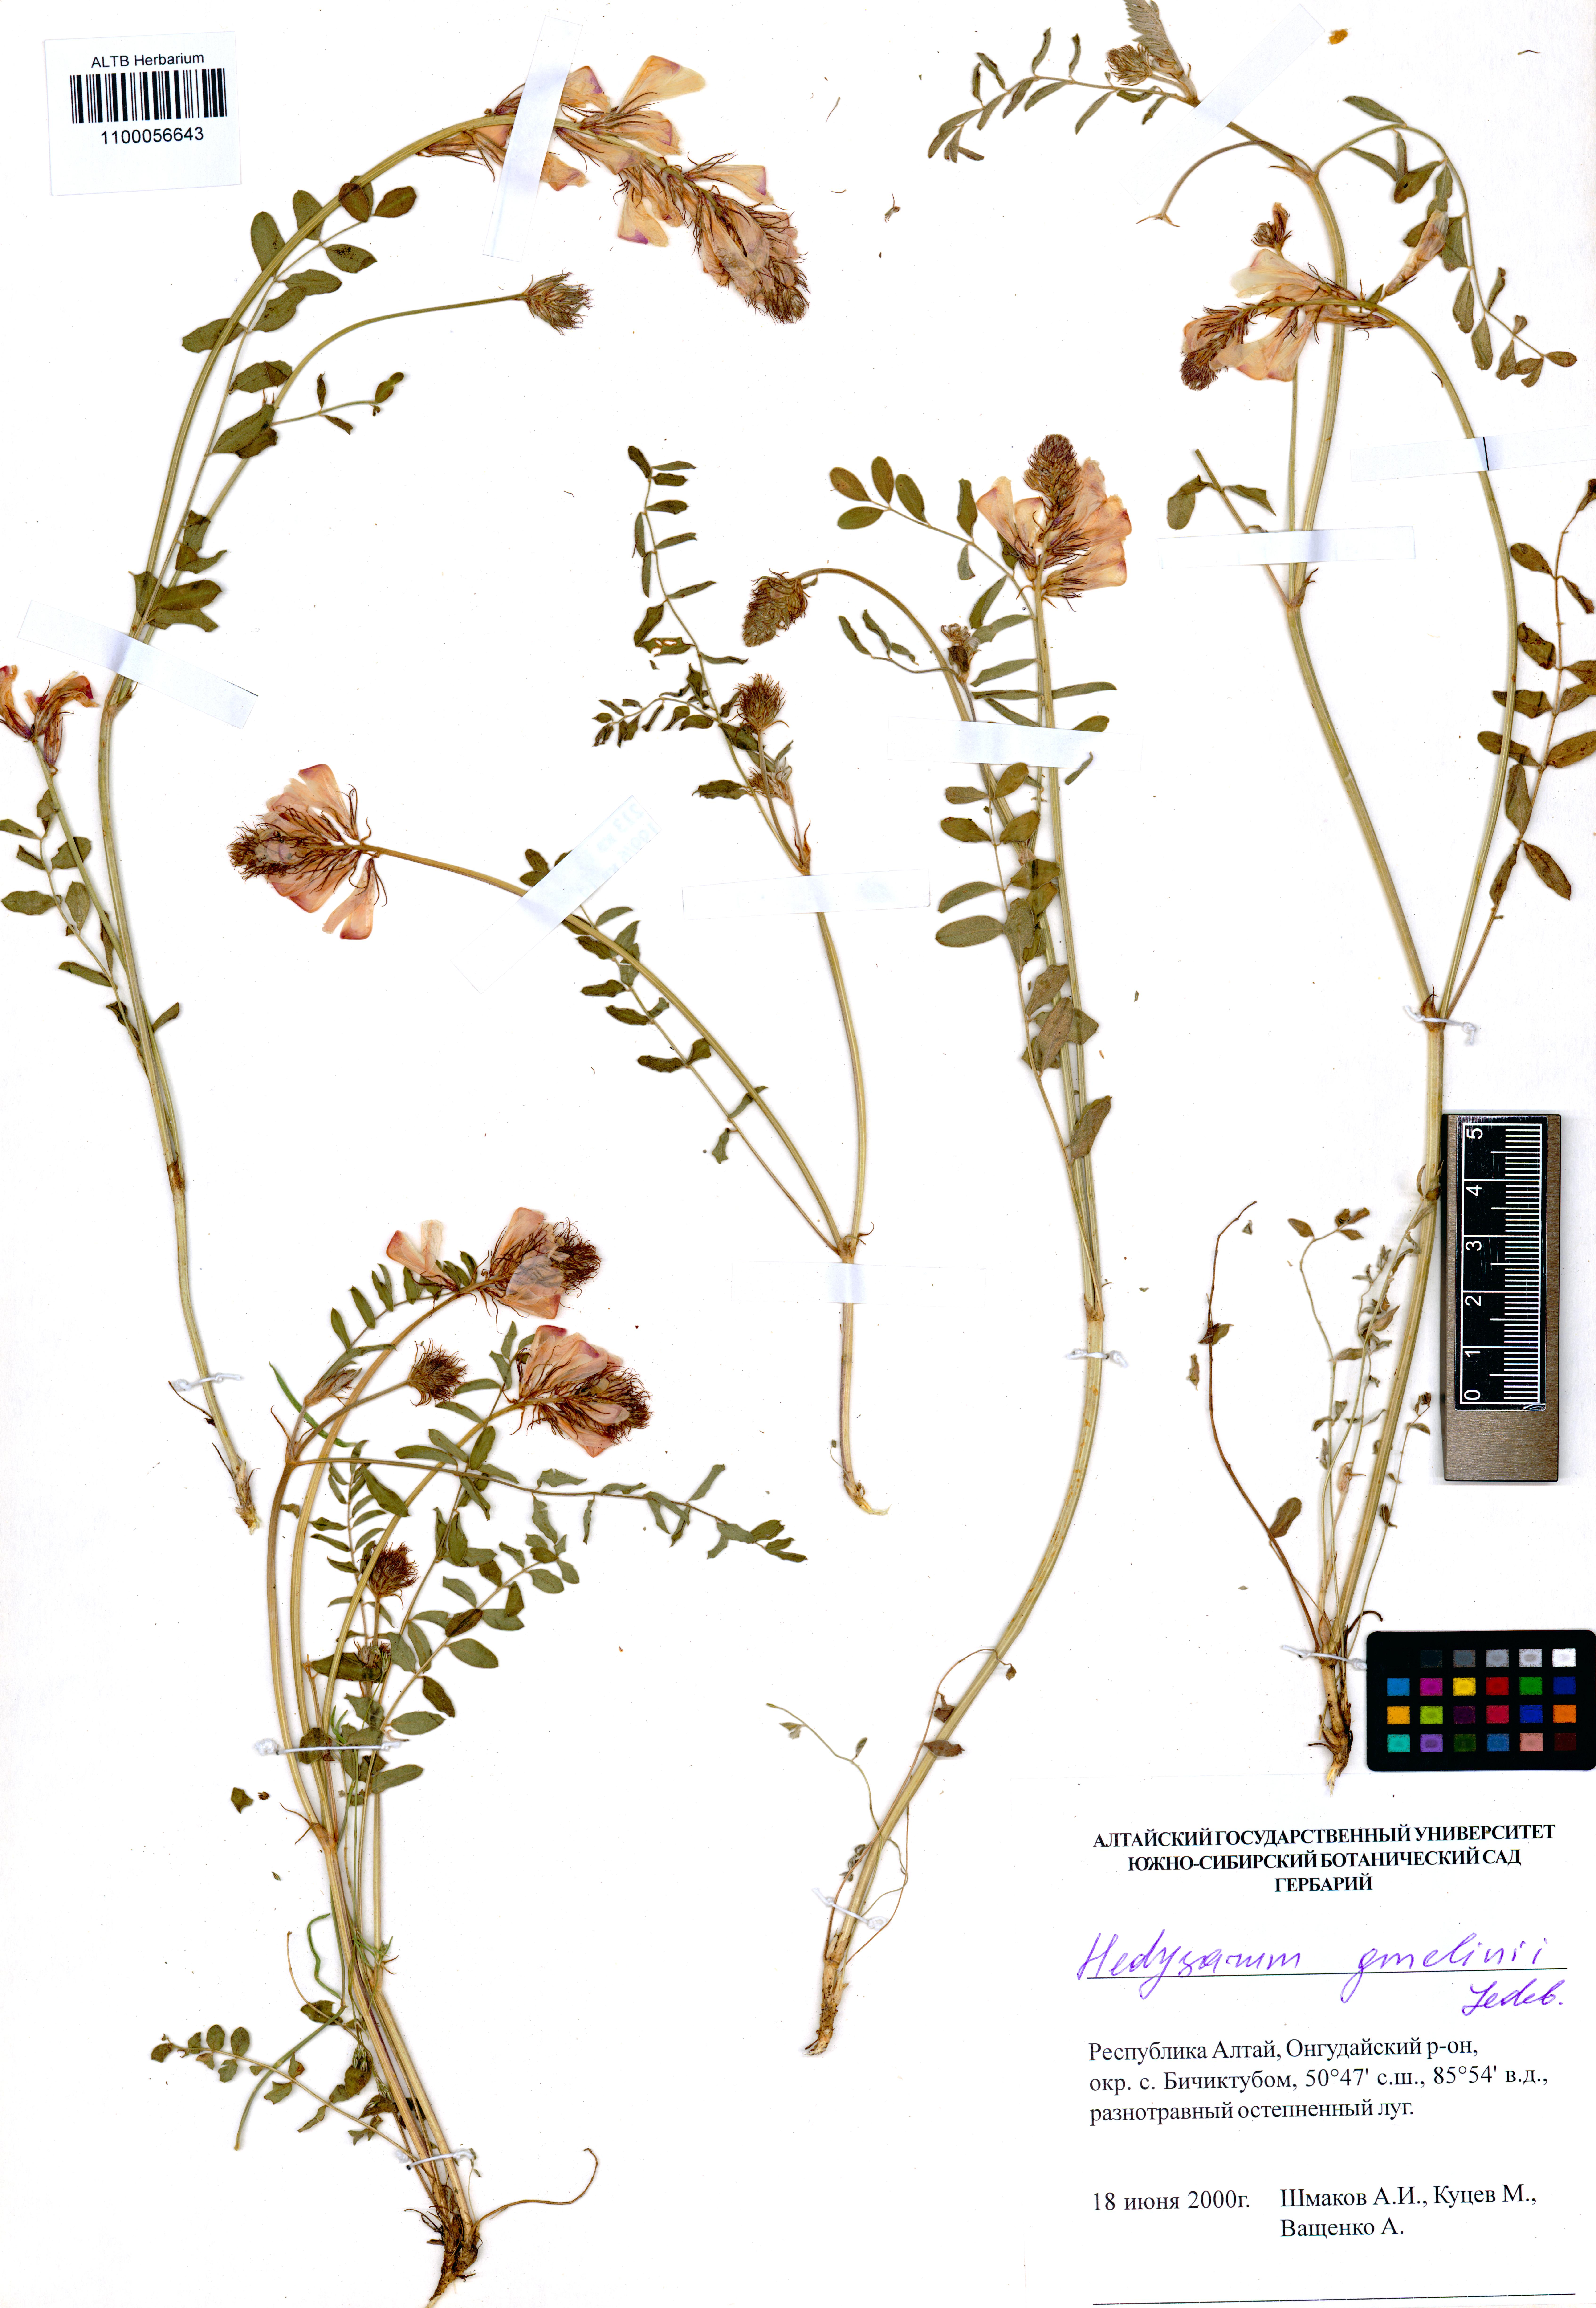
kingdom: Plantae
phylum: Tracheophyta
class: Magnoliopsida
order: Fabales
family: Fabaceae
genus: Hedysarum
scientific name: Hedysarum gmelinii
